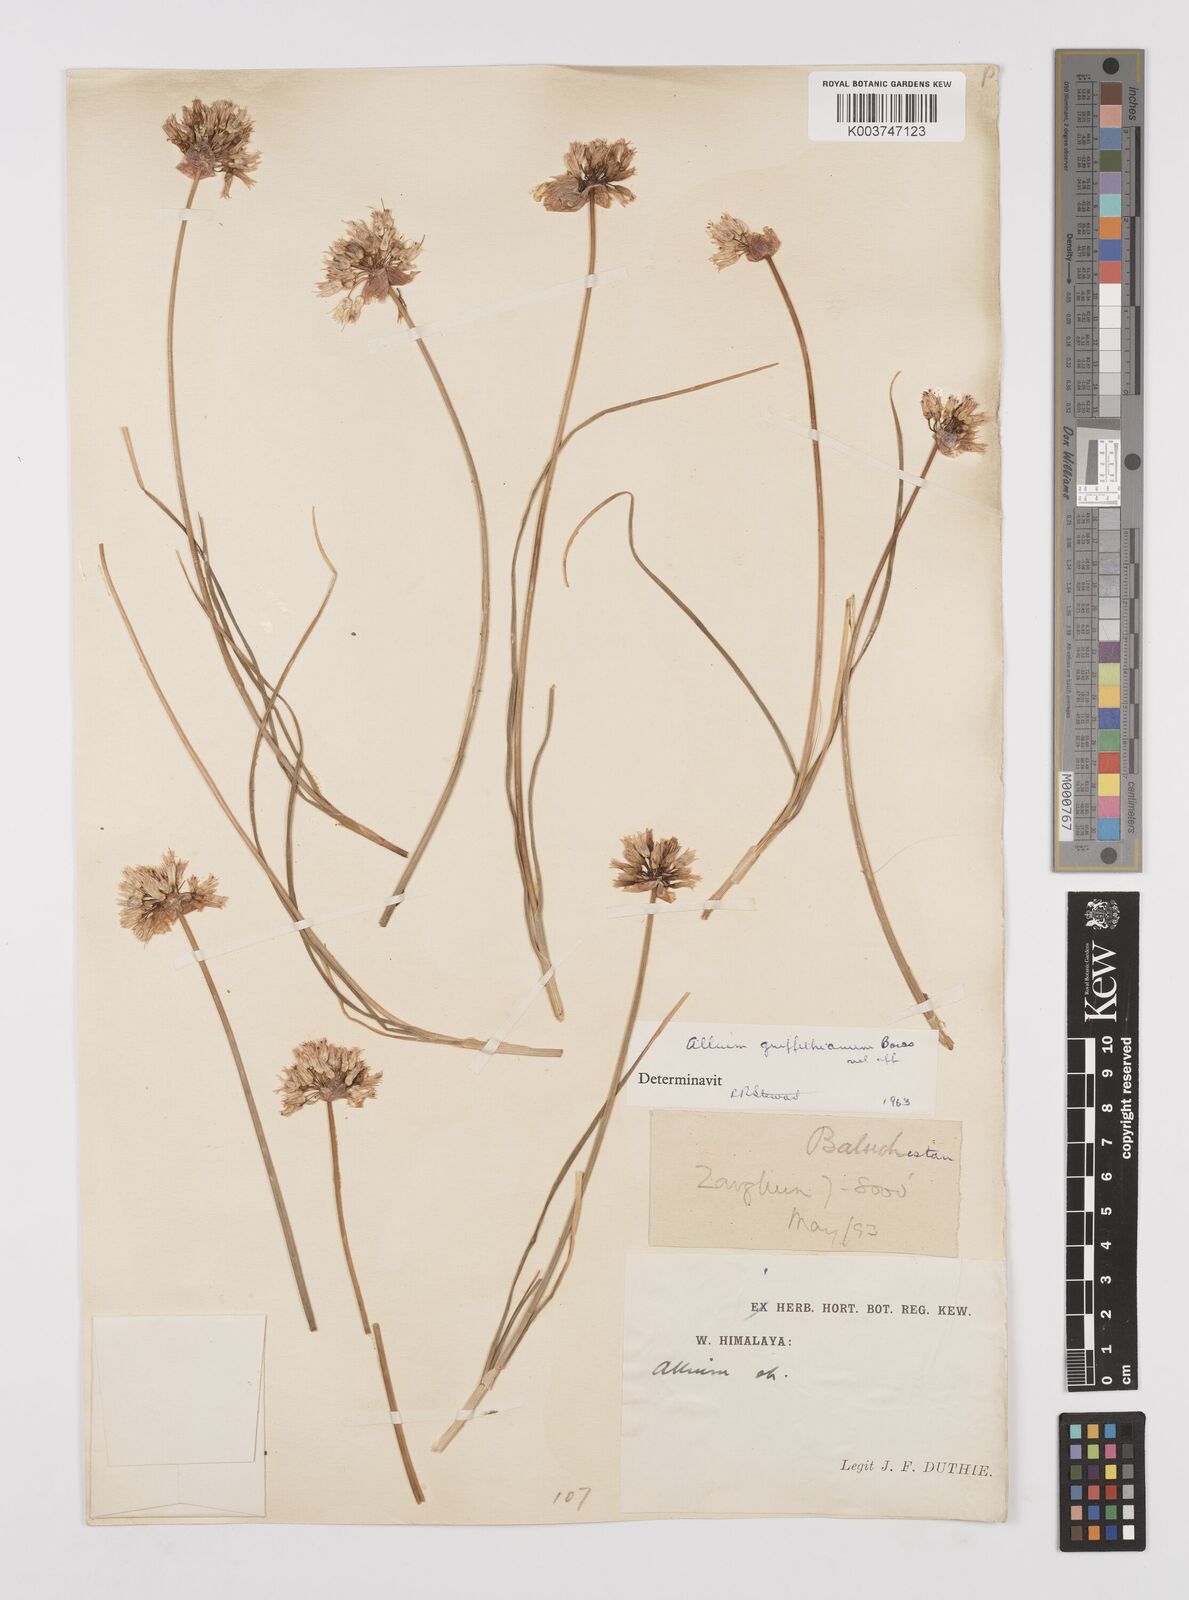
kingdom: Plantae
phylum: Tracheophyta
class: Liliopsida
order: Asparagales
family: Amaryllidaceae
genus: Allium
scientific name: Allium griffithianum
